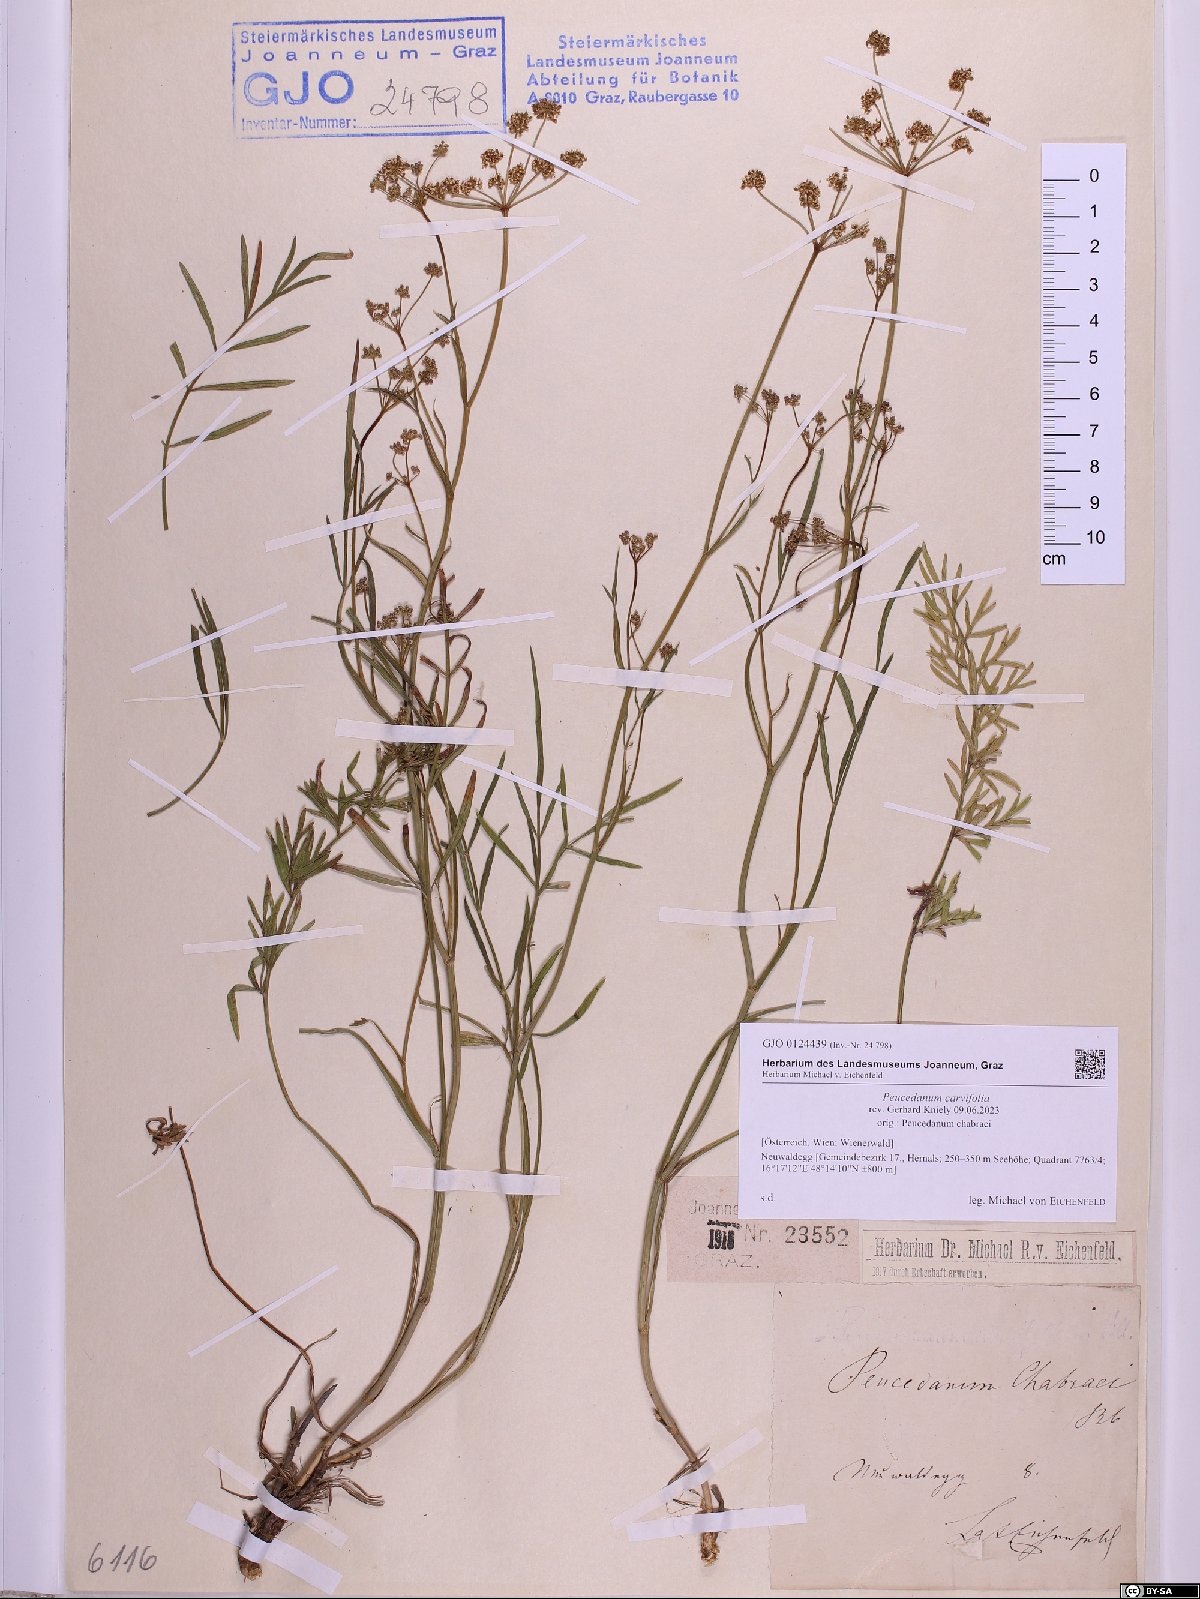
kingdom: Plantae
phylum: Tracheophyta
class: Magnoliopsida
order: Apiales
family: Apiaceae
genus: Dichoropetalum
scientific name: Dichoropetalum carvifolia
